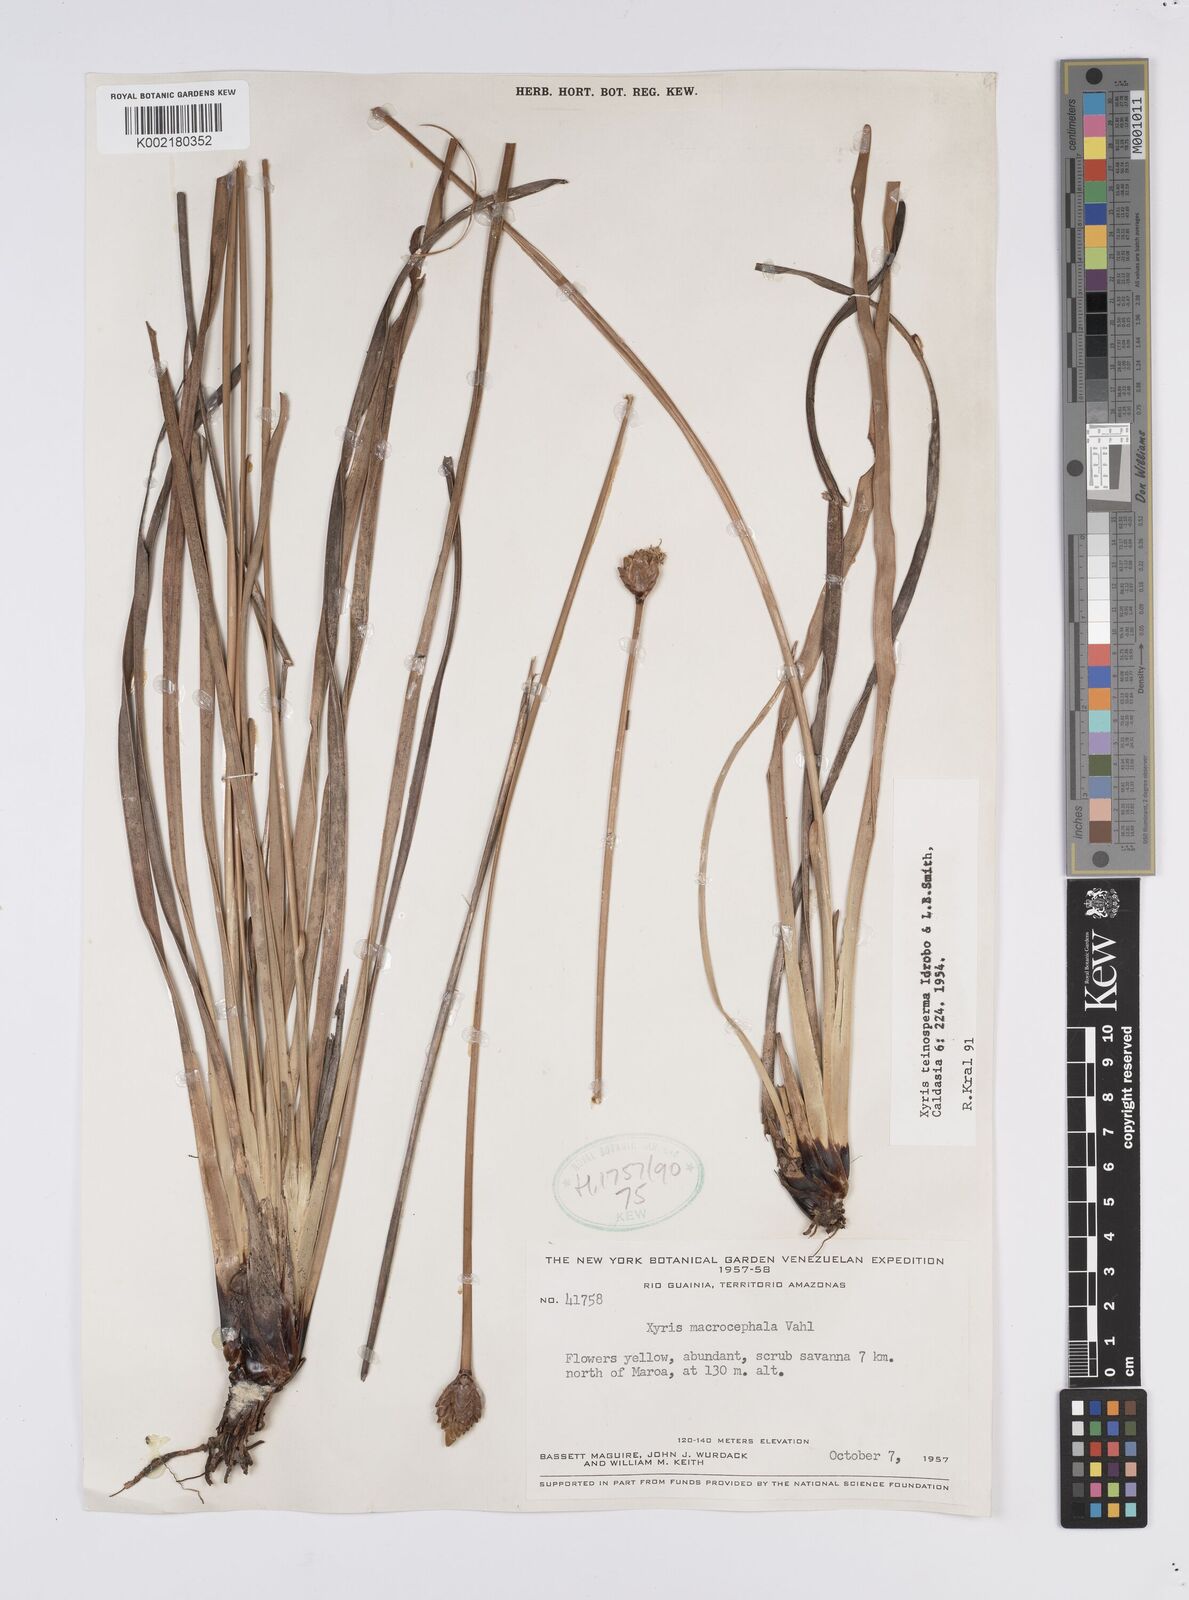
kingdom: Plantae
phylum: Tracheophyta
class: Liliopsida
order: Poales
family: Xyridaceae
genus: Xyris
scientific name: Xyris teinosperma
